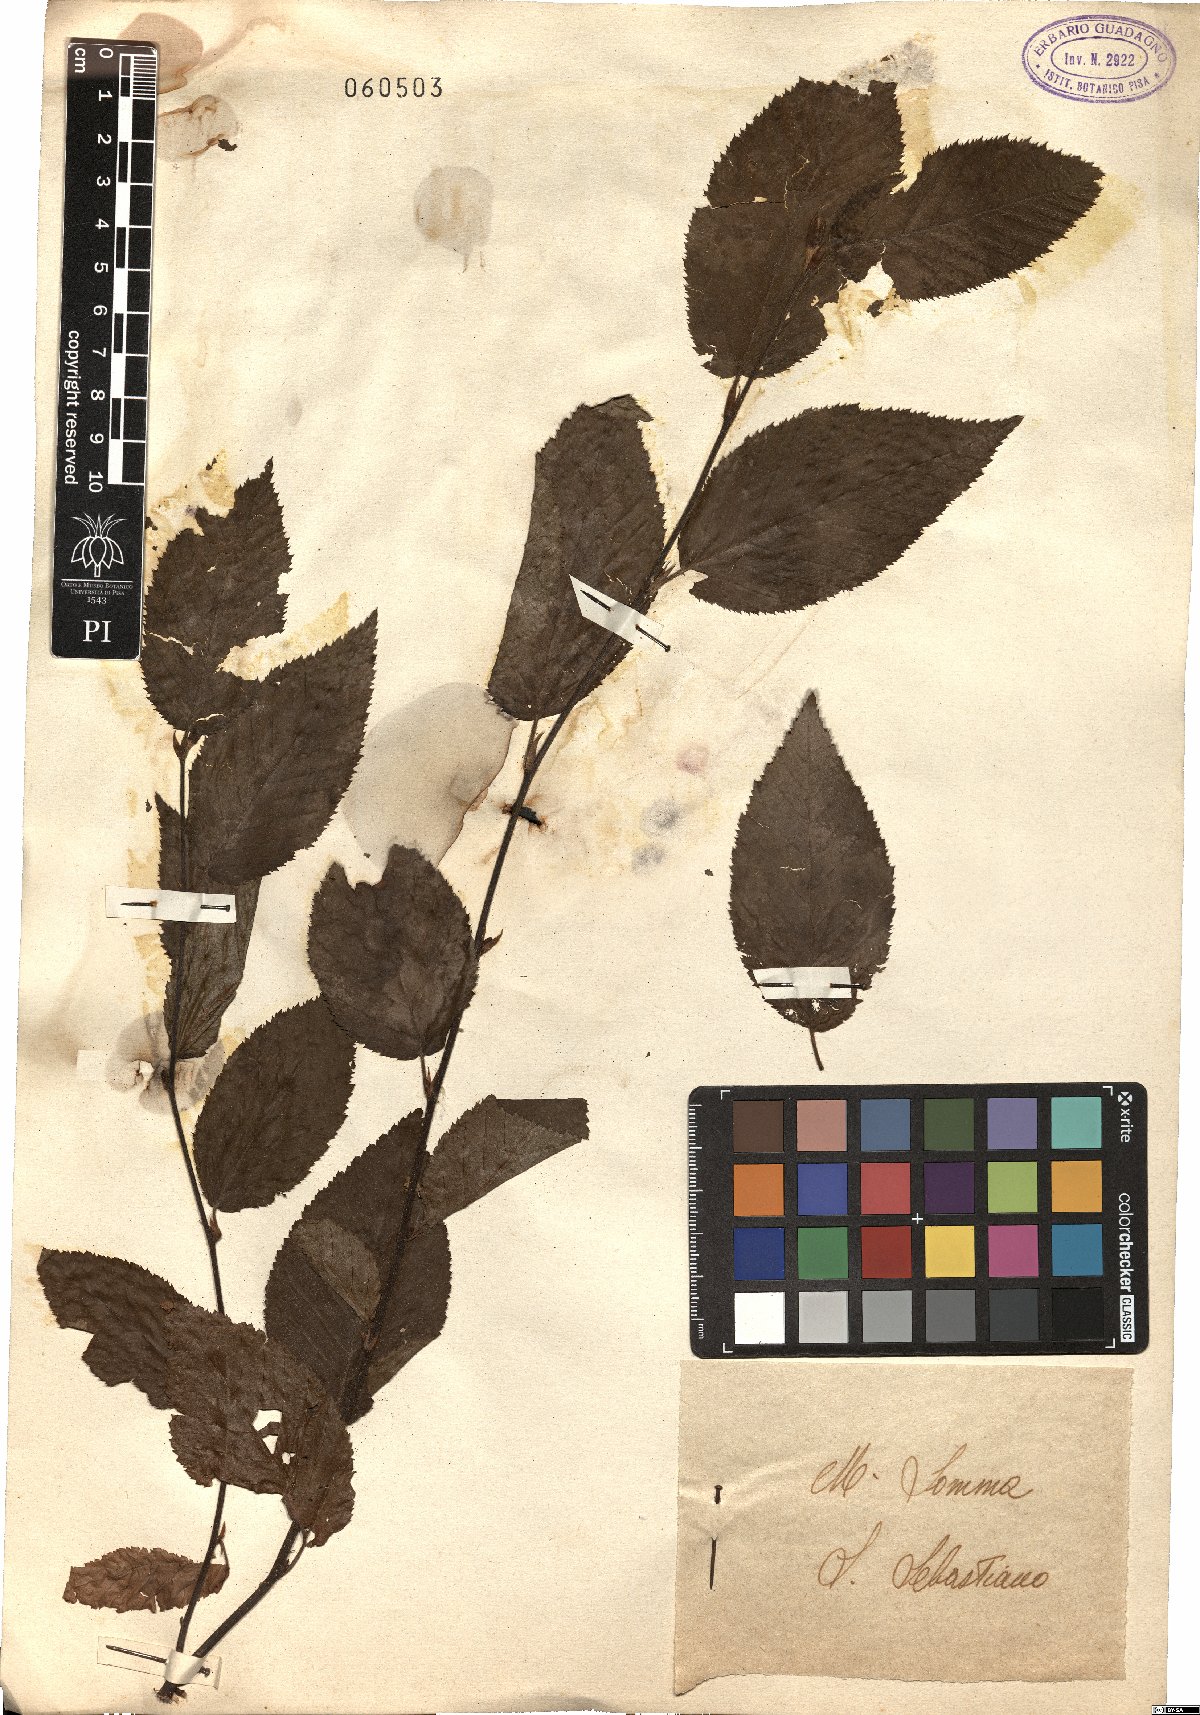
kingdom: Plantae
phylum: Tracheophyta
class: Magnoliopsida
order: Fagales
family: Betulaceae
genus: Ostrya
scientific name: Ostrya carpinifolia
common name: European hop-hornbeam
